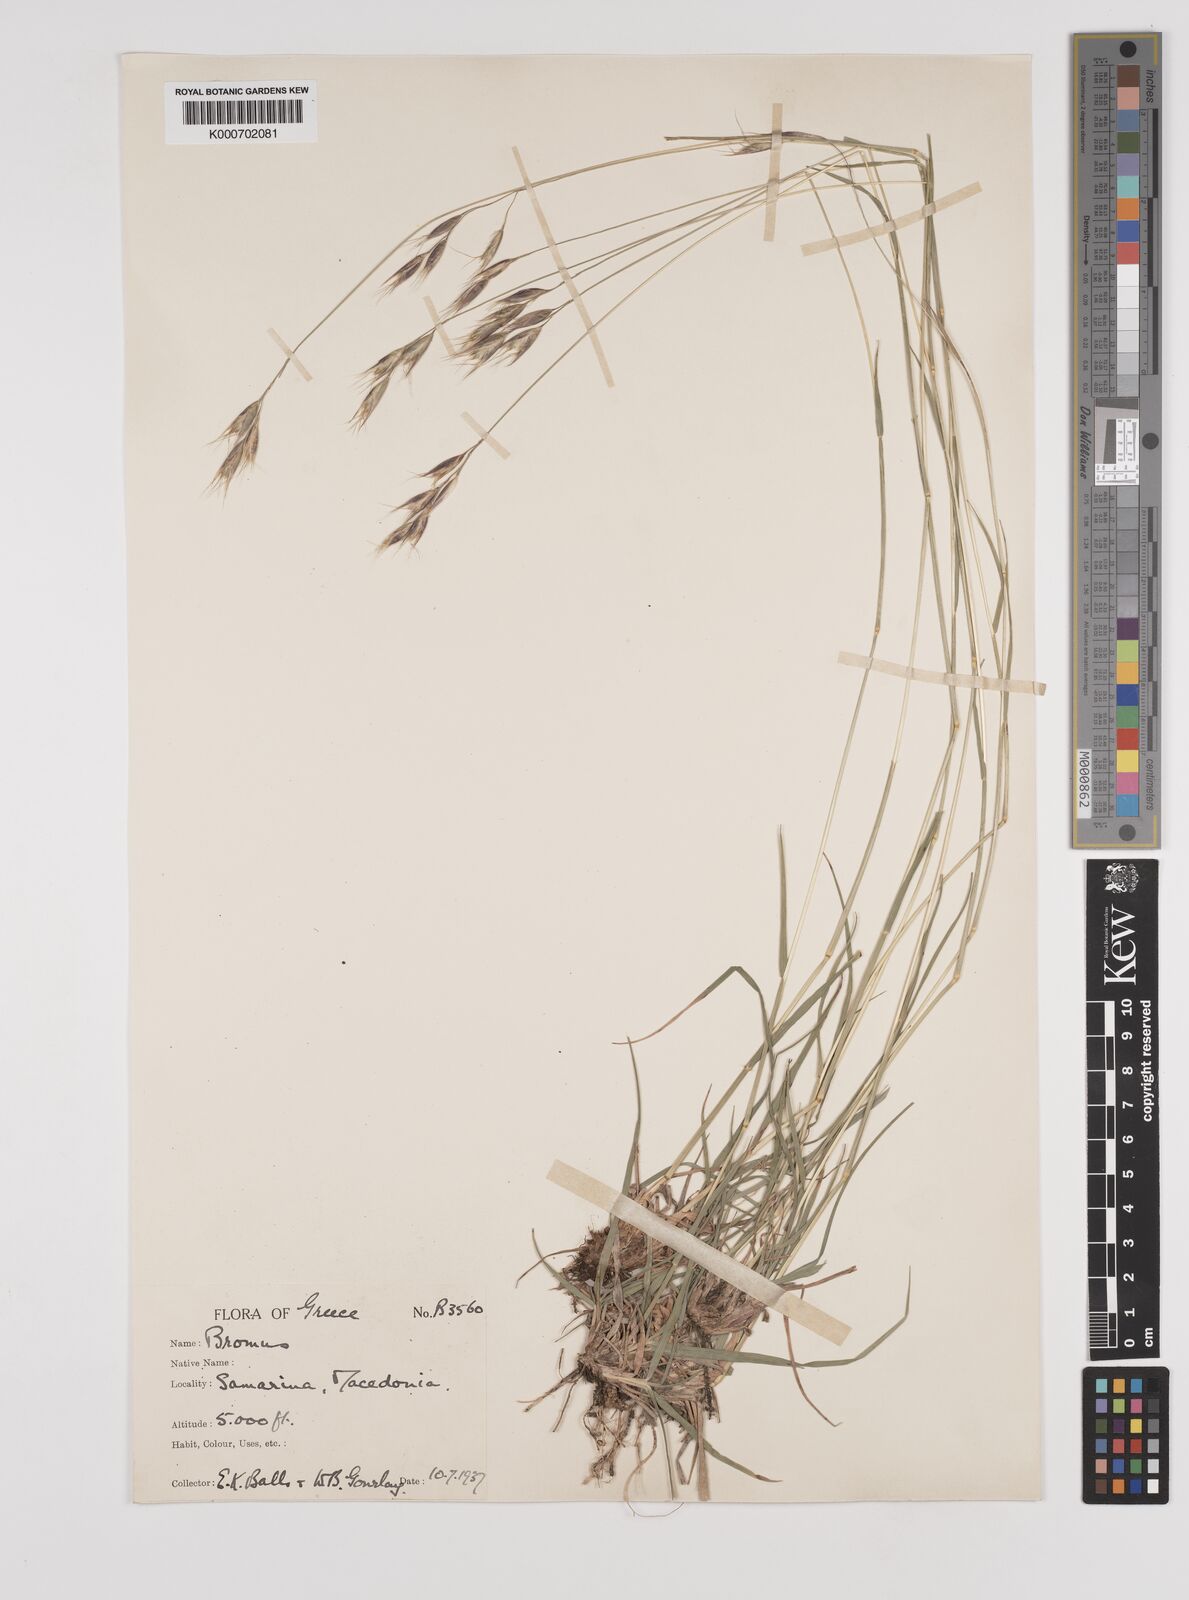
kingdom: Plantae
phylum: Tracheophyta
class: Liliopsida
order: Poales
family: Poaceae
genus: Danthonia
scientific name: Danthonia alpina
